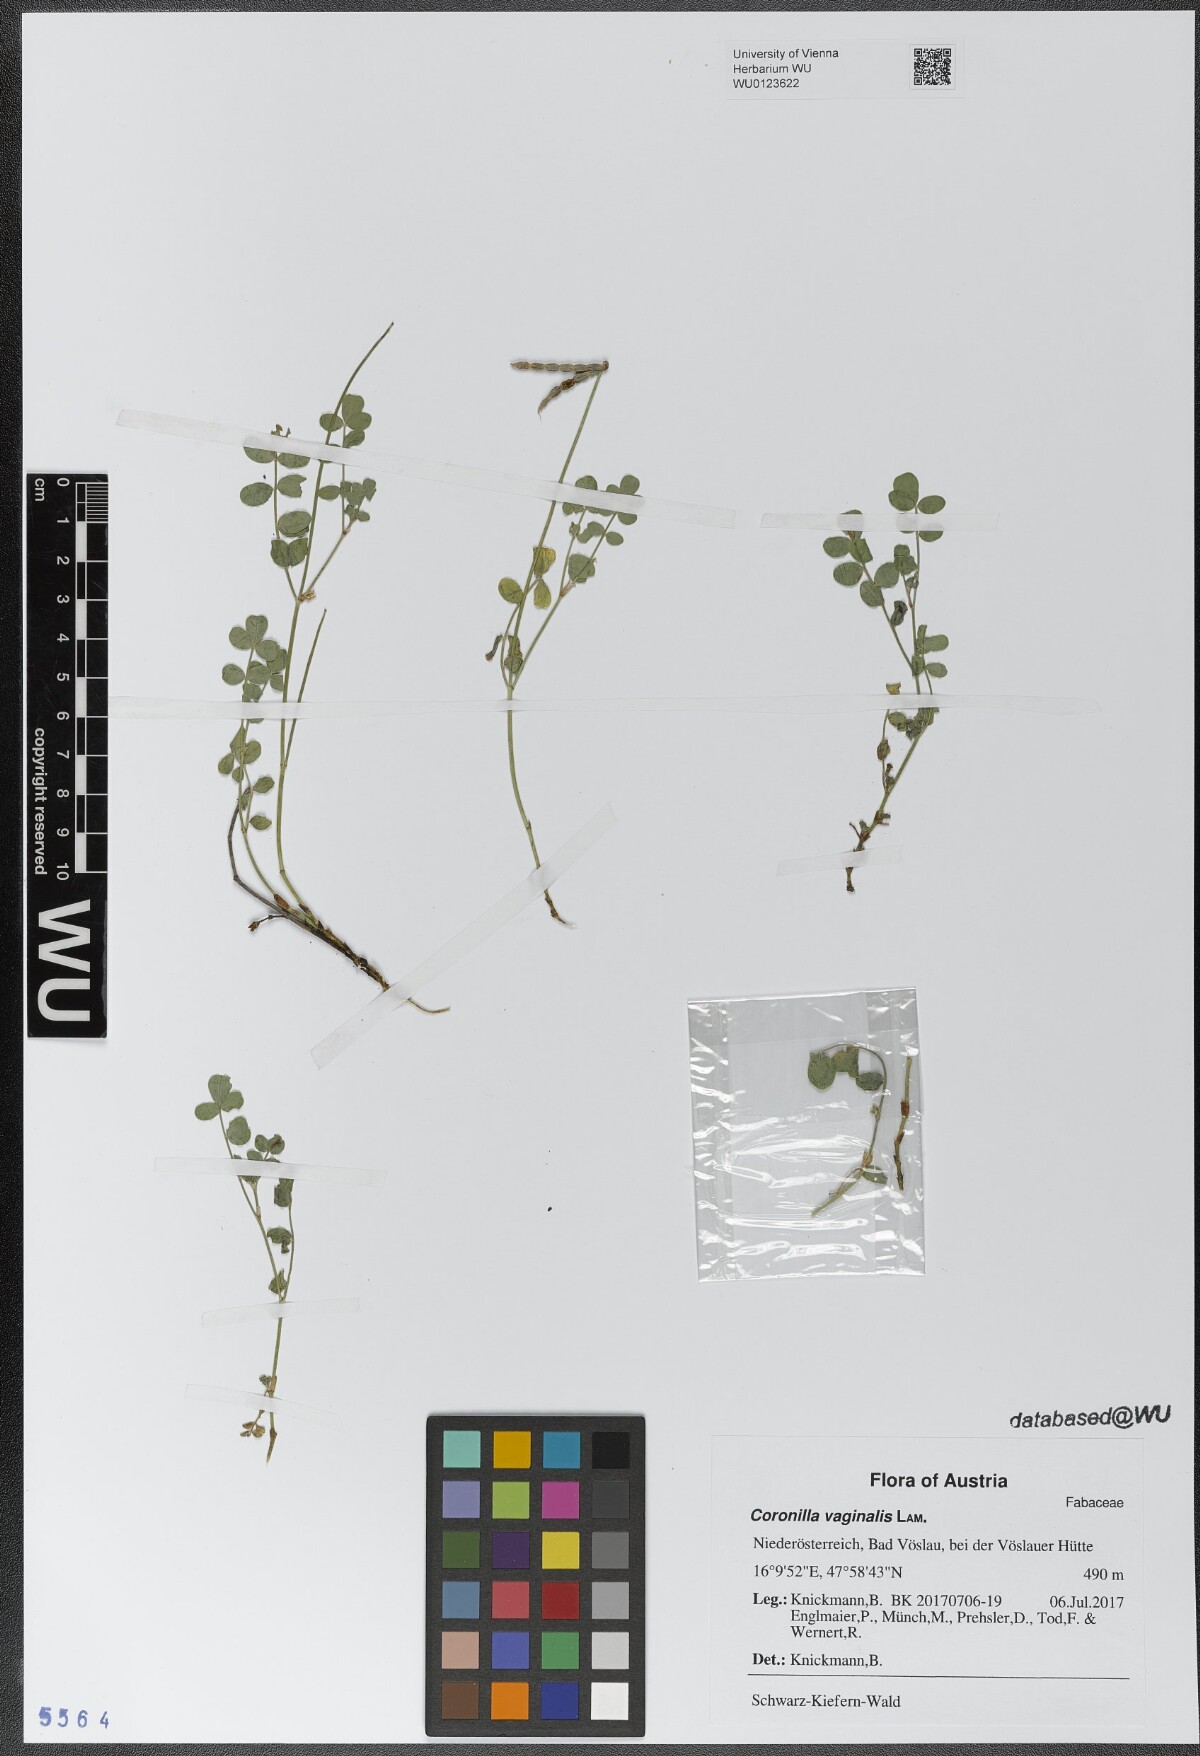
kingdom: Plantae
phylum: Tracheophyta
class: Magnoliopsida
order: Fabales
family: Fabaceae
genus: Coronilla
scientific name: Coronilla vaginalis
